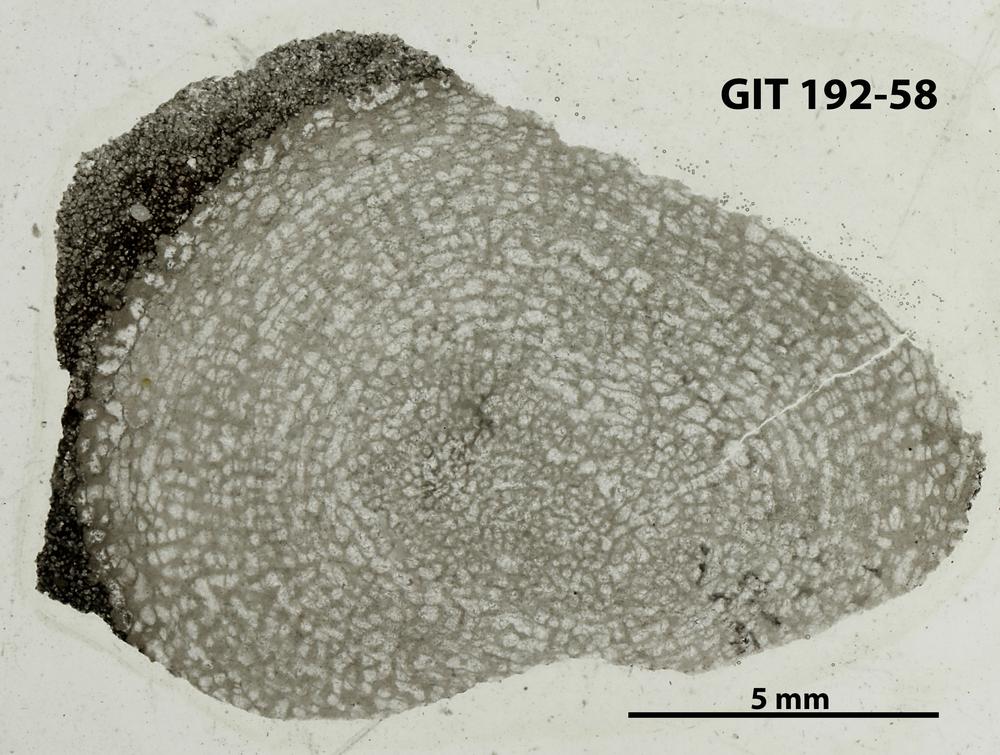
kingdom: Animalia
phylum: Porifera
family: Pseudolabechiidae
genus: Vikingia
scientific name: Vikingia
